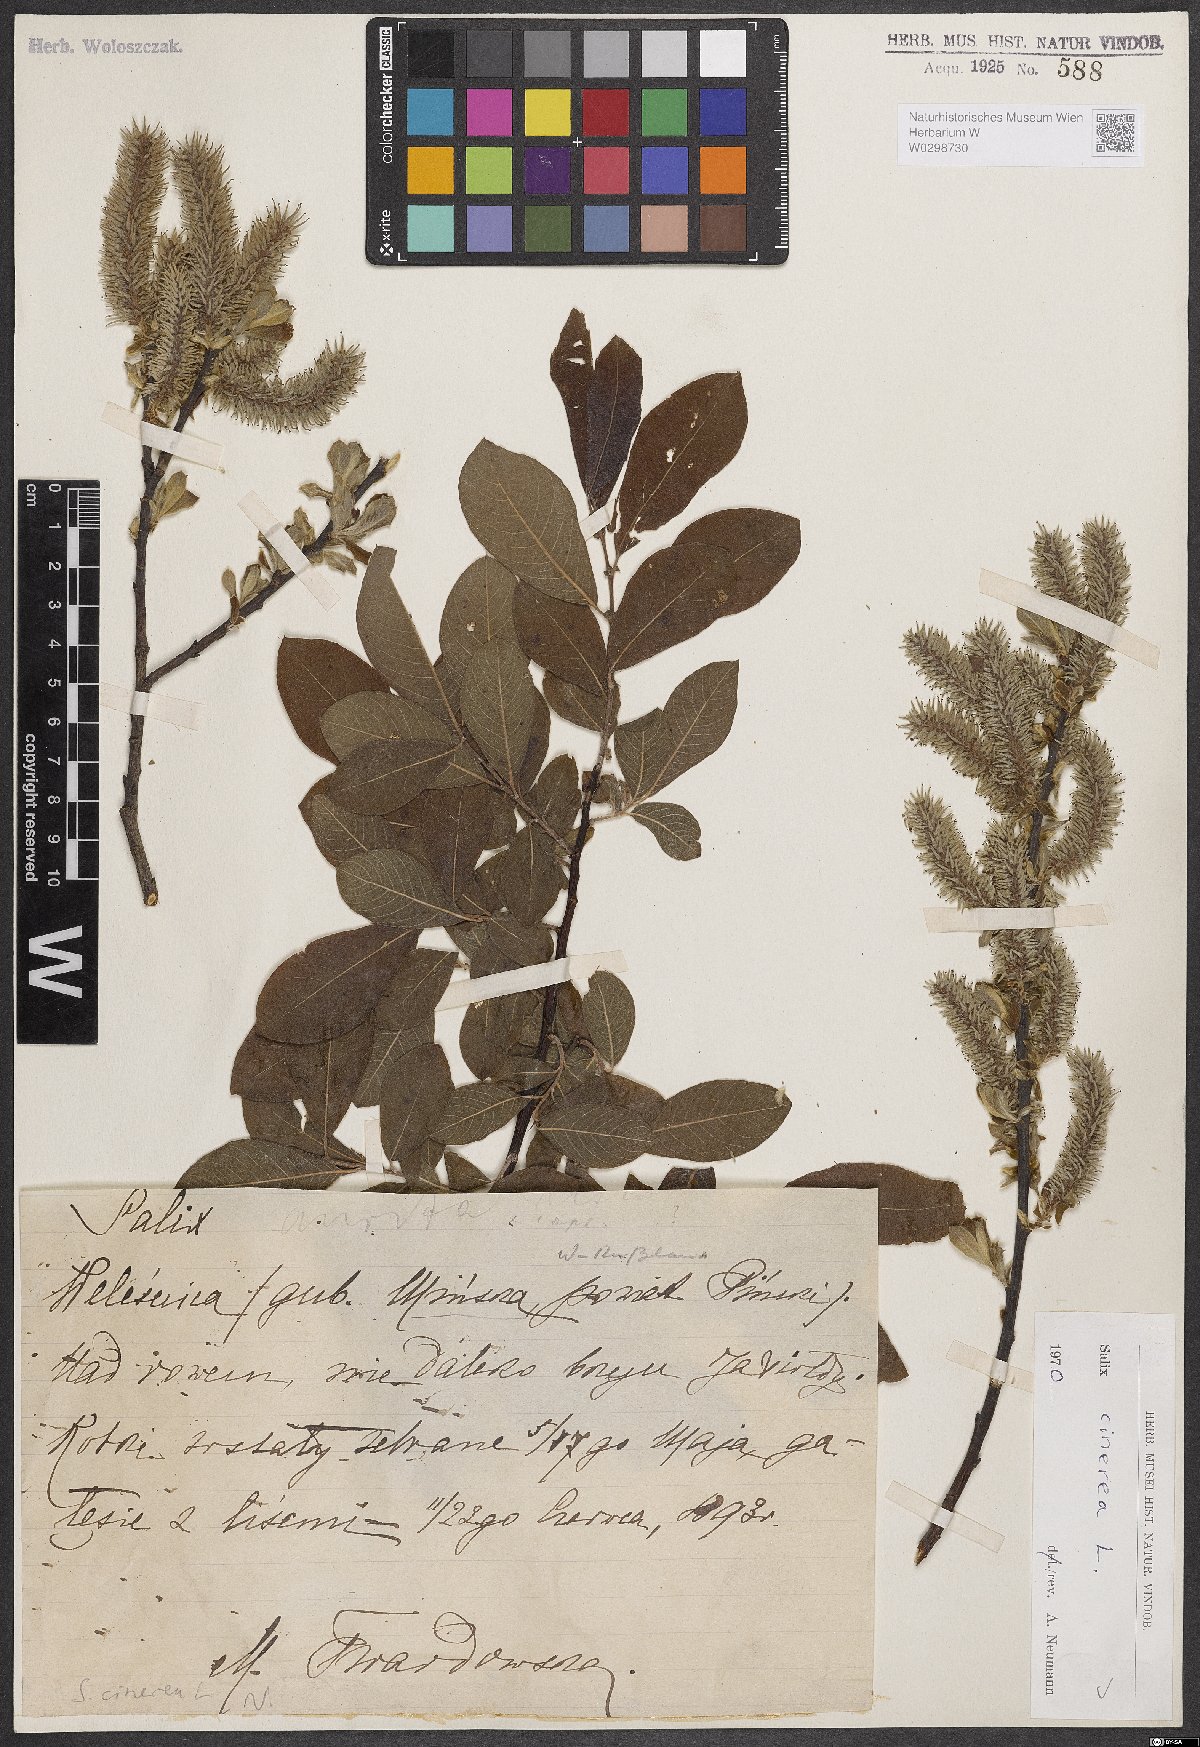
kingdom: Plantae
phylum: Tracheophyta
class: Magnoliopsida
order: Malpighiales
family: Salicaceae
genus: Salix
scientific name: Salix cinerea
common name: Common sallow
